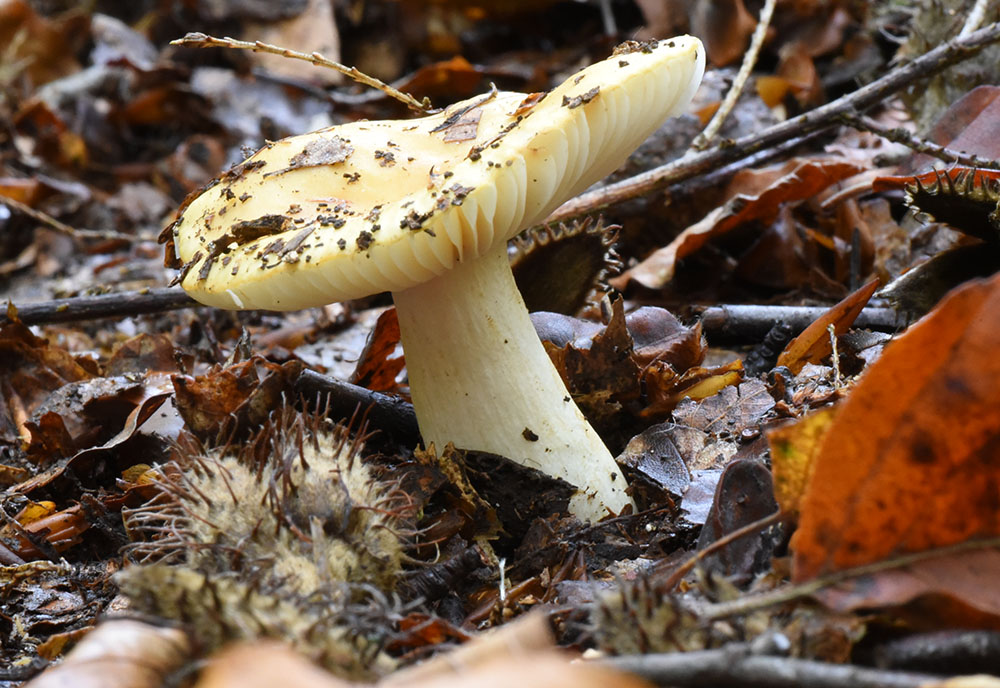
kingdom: Fungi
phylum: Basidiomycota
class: Agaricomycetes
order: Russulales
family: Russulaceae
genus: Russula
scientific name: Russula ochroleuca
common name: Common yellow russula
